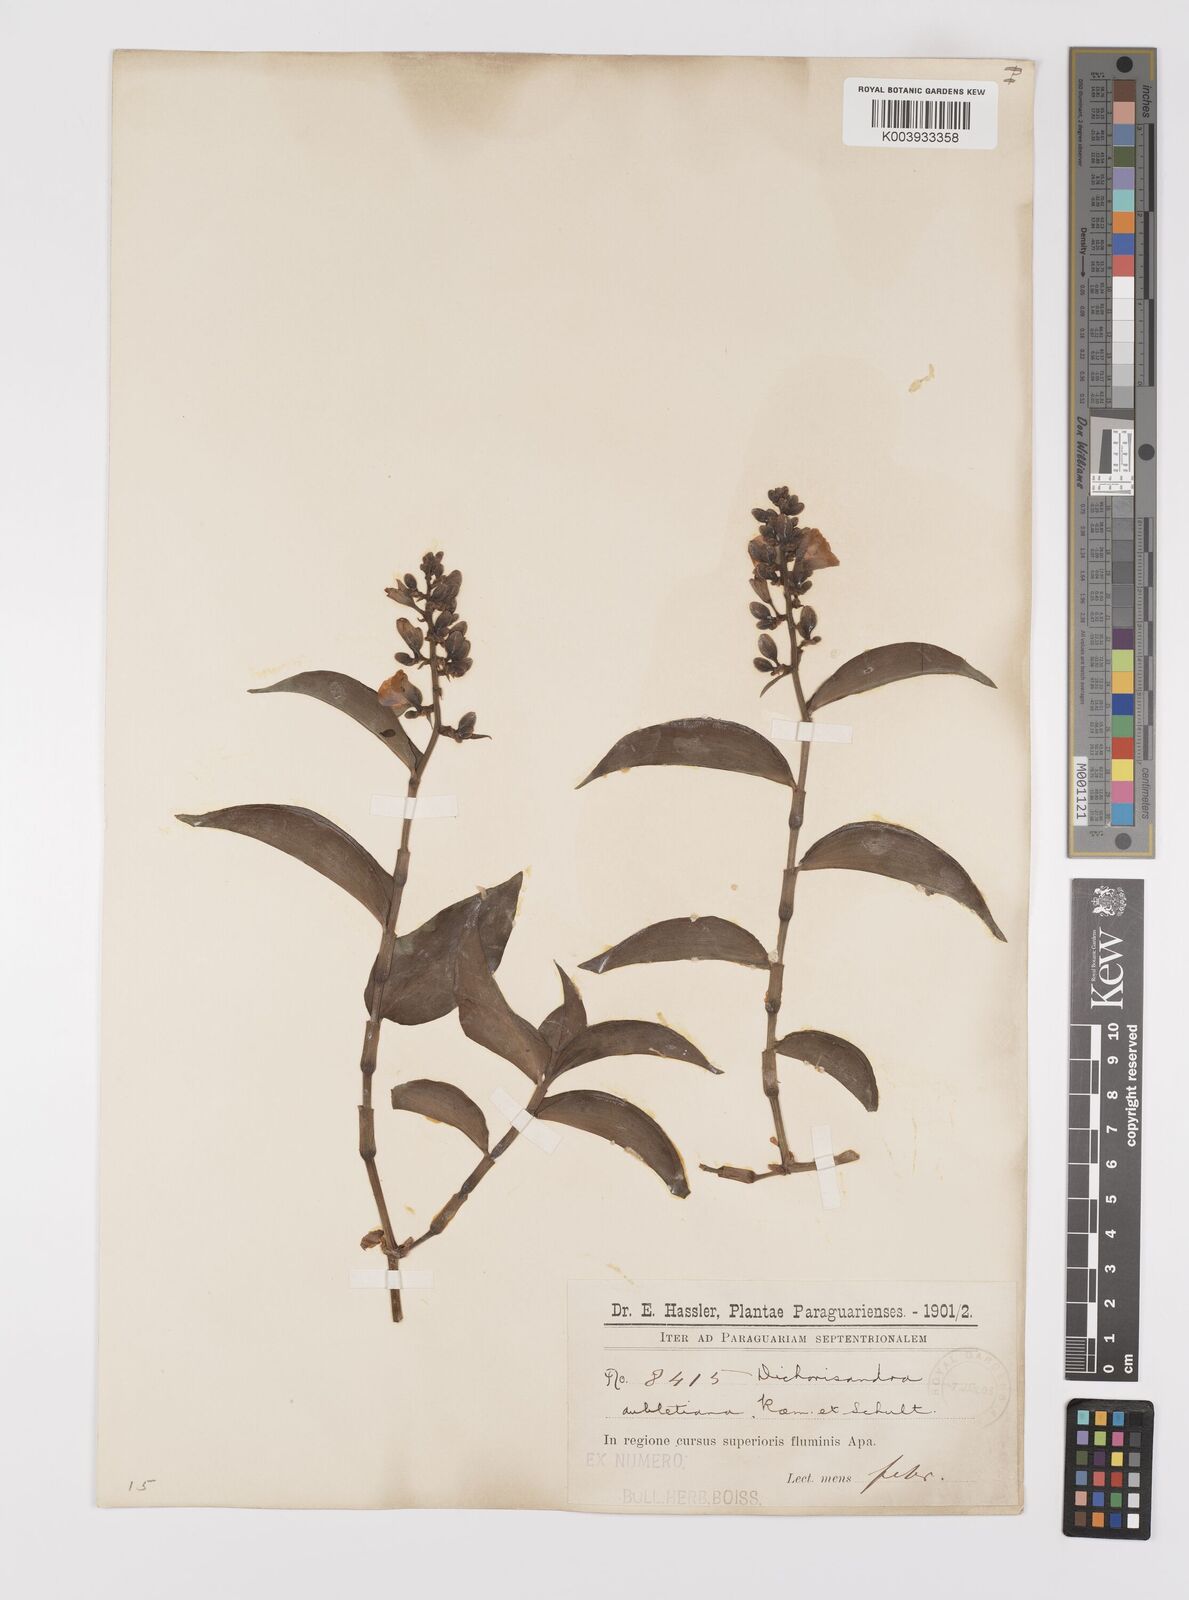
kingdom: Plantae
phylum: Tracheophyta
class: Liliopsida
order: Commelinales
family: Commelinaceae
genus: Dichorisandra
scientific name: Dichorisandra hexandra
